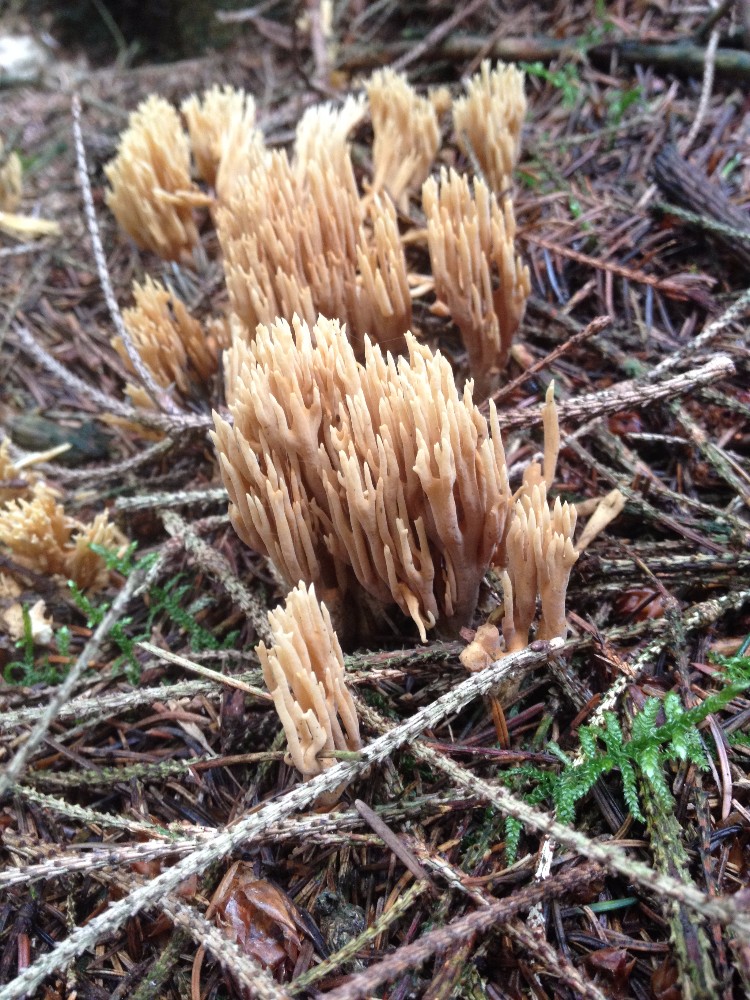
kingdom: Fungi
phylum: Basidiomycota
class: Agaricomycetes
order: Gomphales
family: Gomphaceae
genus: Phaeoclavulina
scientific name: Phaeoclavulina eumorpha
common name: gran-koralsvamp
